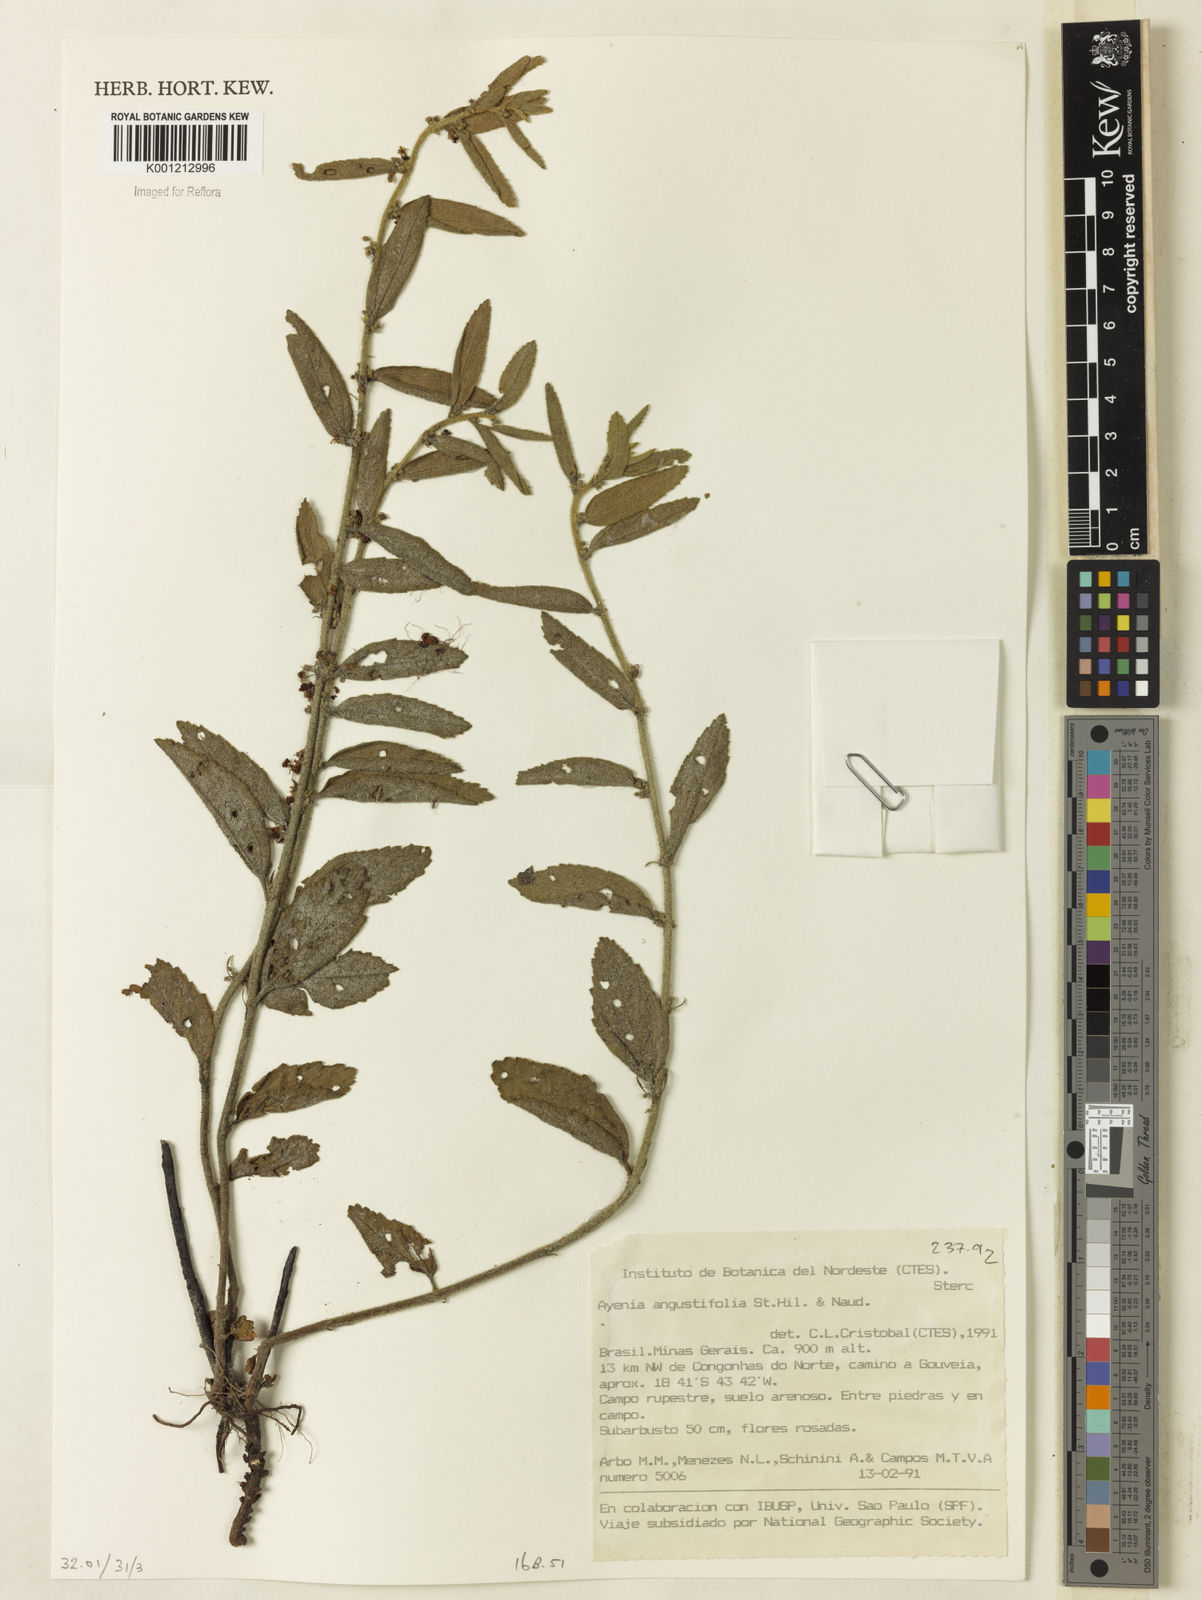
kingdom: Plantae
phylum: Tracheophyta
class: Magnoliopsida
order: Malvales
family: Malvaceae
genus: Ayenia
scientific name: Ayenia angustifolia
